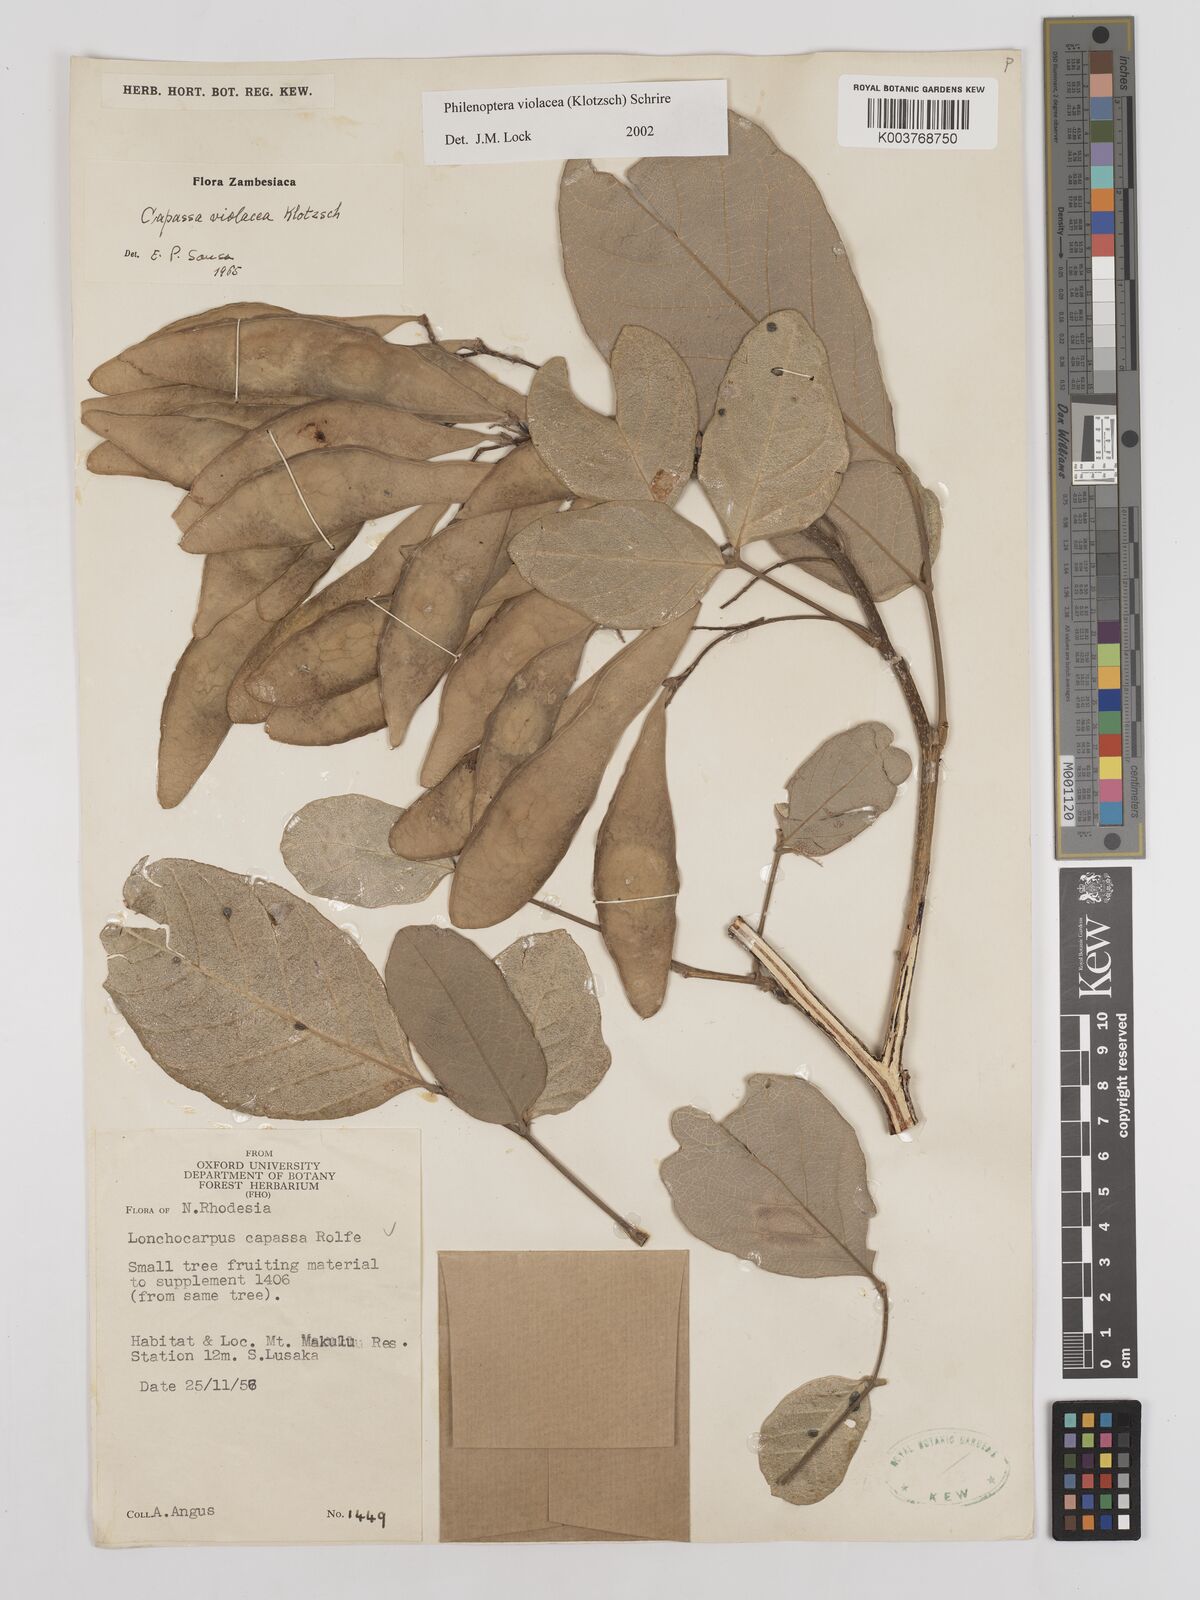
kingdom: Plantae
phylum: Tracheophyta
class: Magnoliopsida
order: Fabales
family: Fabaceae
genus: Philenoptera
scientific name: Philenoptera violacea
